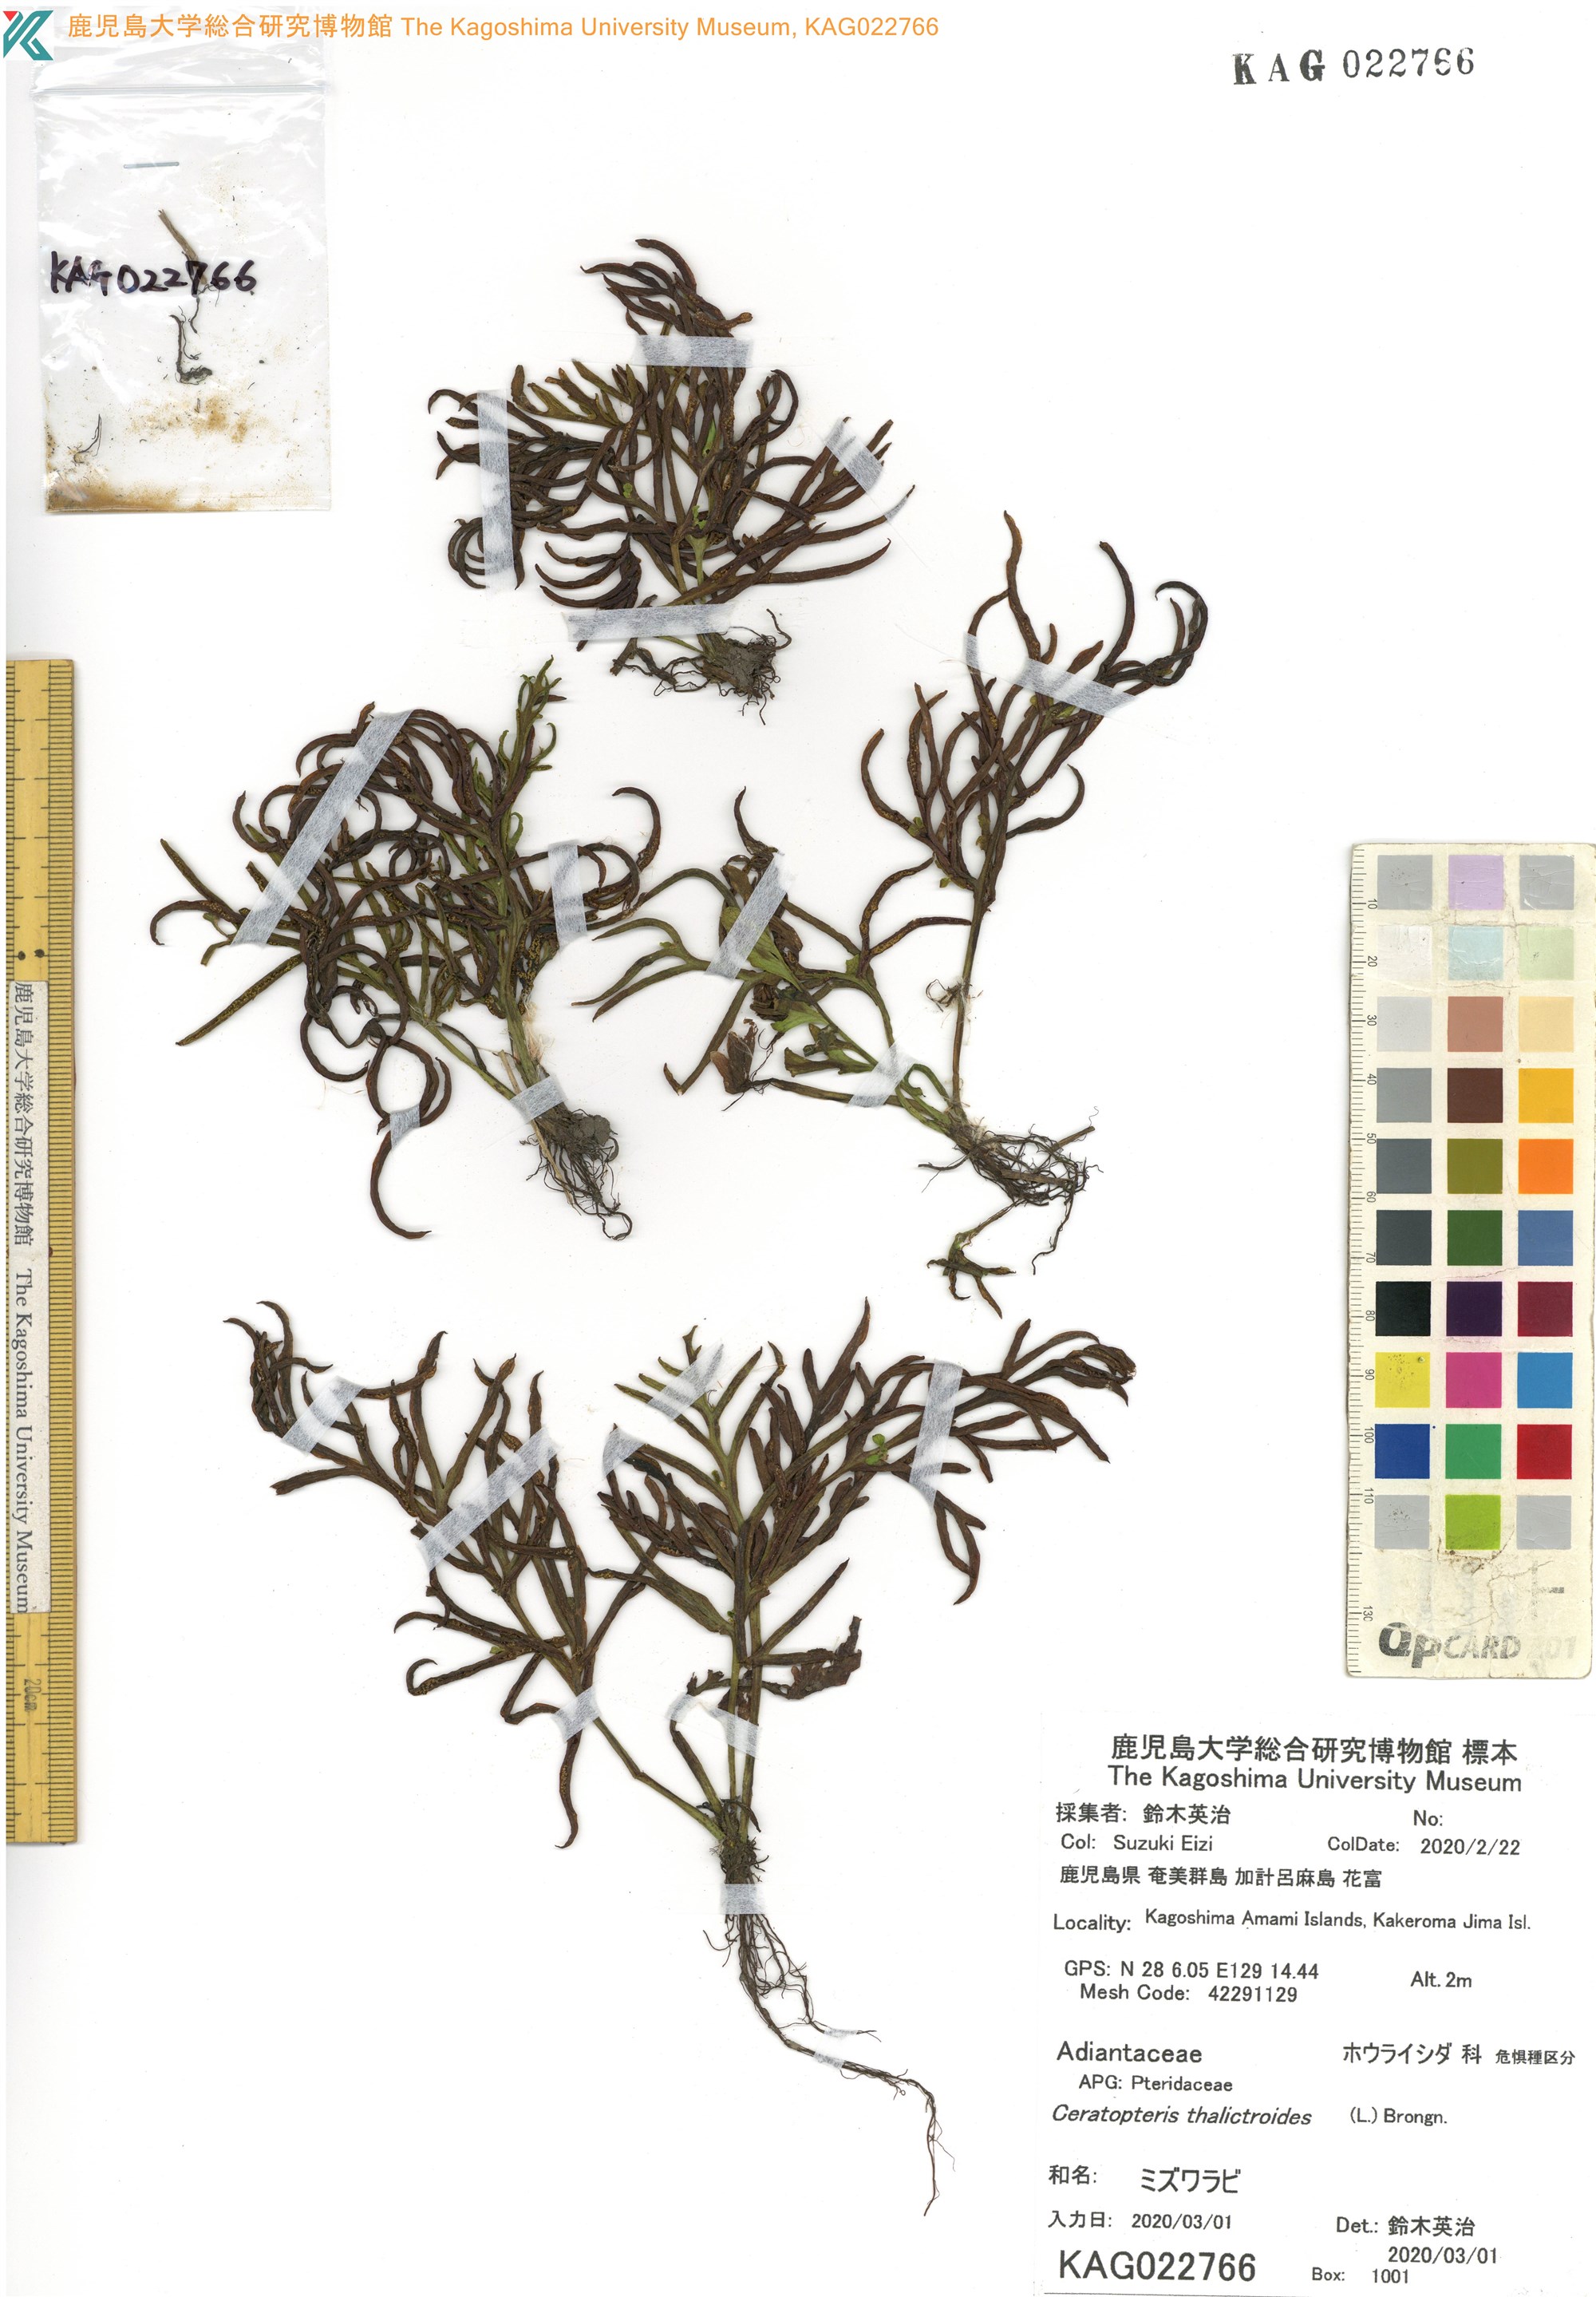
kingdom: Plantae
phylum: Tracheophyta
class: Polypodiopsida
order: Polypodiales
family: Pteridaceae
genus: Ceratopteris
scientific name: Ceratopteris thalictroides
